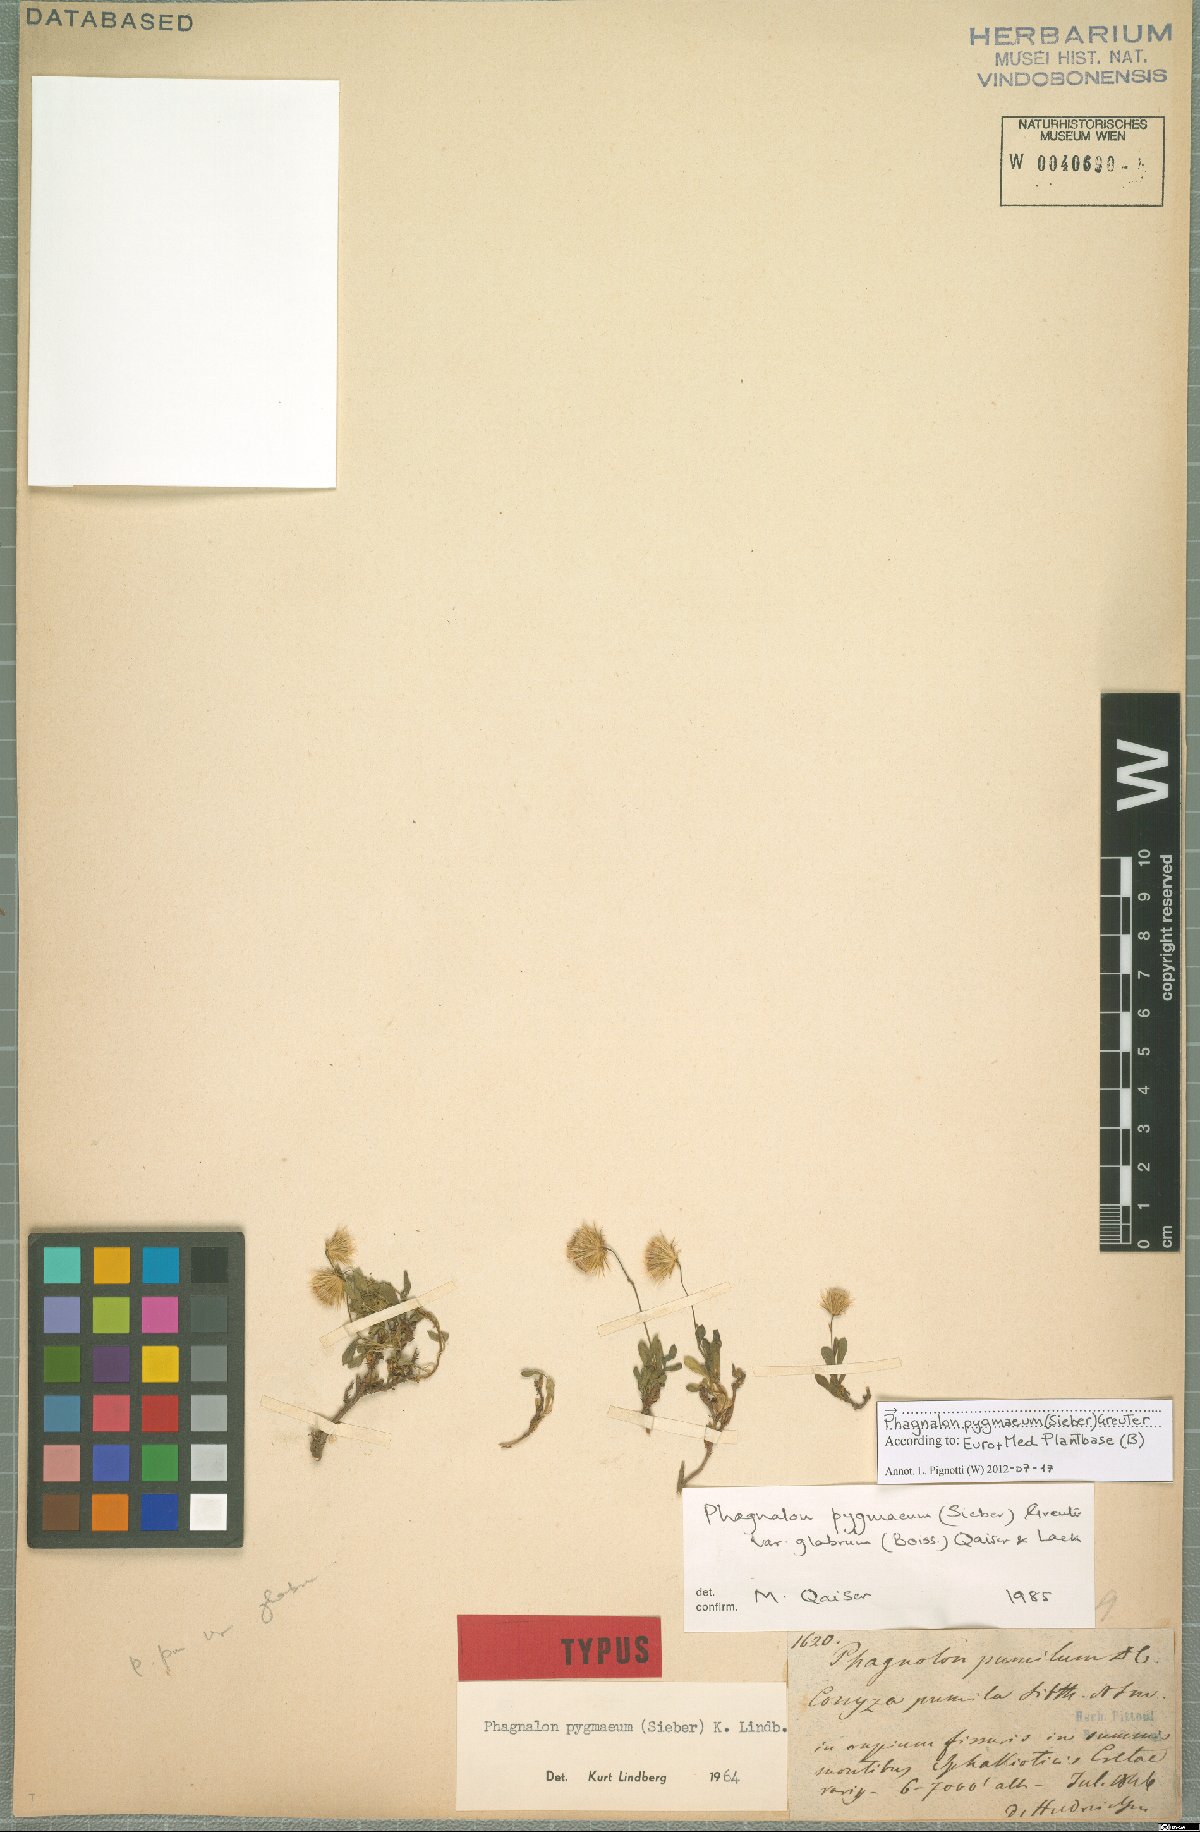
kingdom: Plantae
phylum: Tracheophyta
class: Magnoliopsida
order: Asterales
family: Asteraceae
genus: Phagnalon
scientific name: Phagnalon pygmaeum
